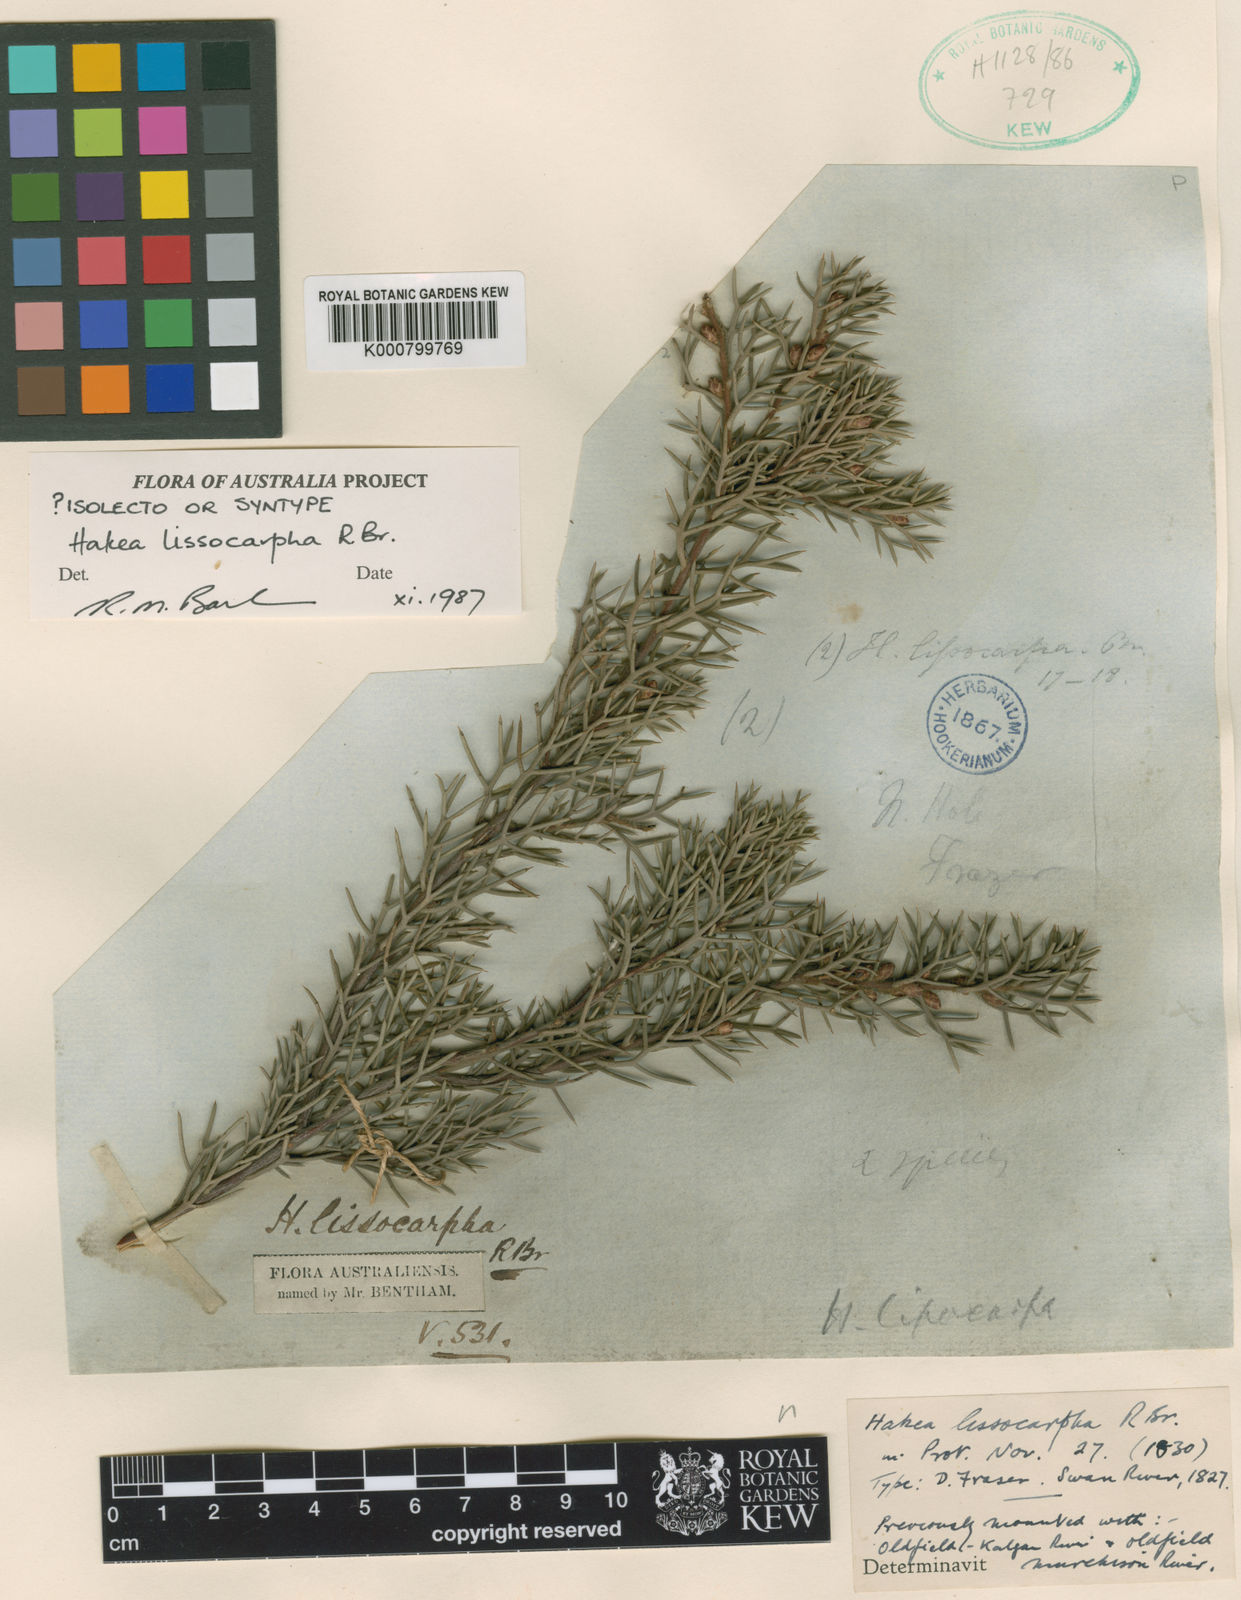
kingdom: Plantae
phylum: Tracheophyta
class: Magnoliopsida
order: Proteales
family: Proteaceae
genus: Hakea
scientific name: Hakea lissocarpha
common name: Honey bush
